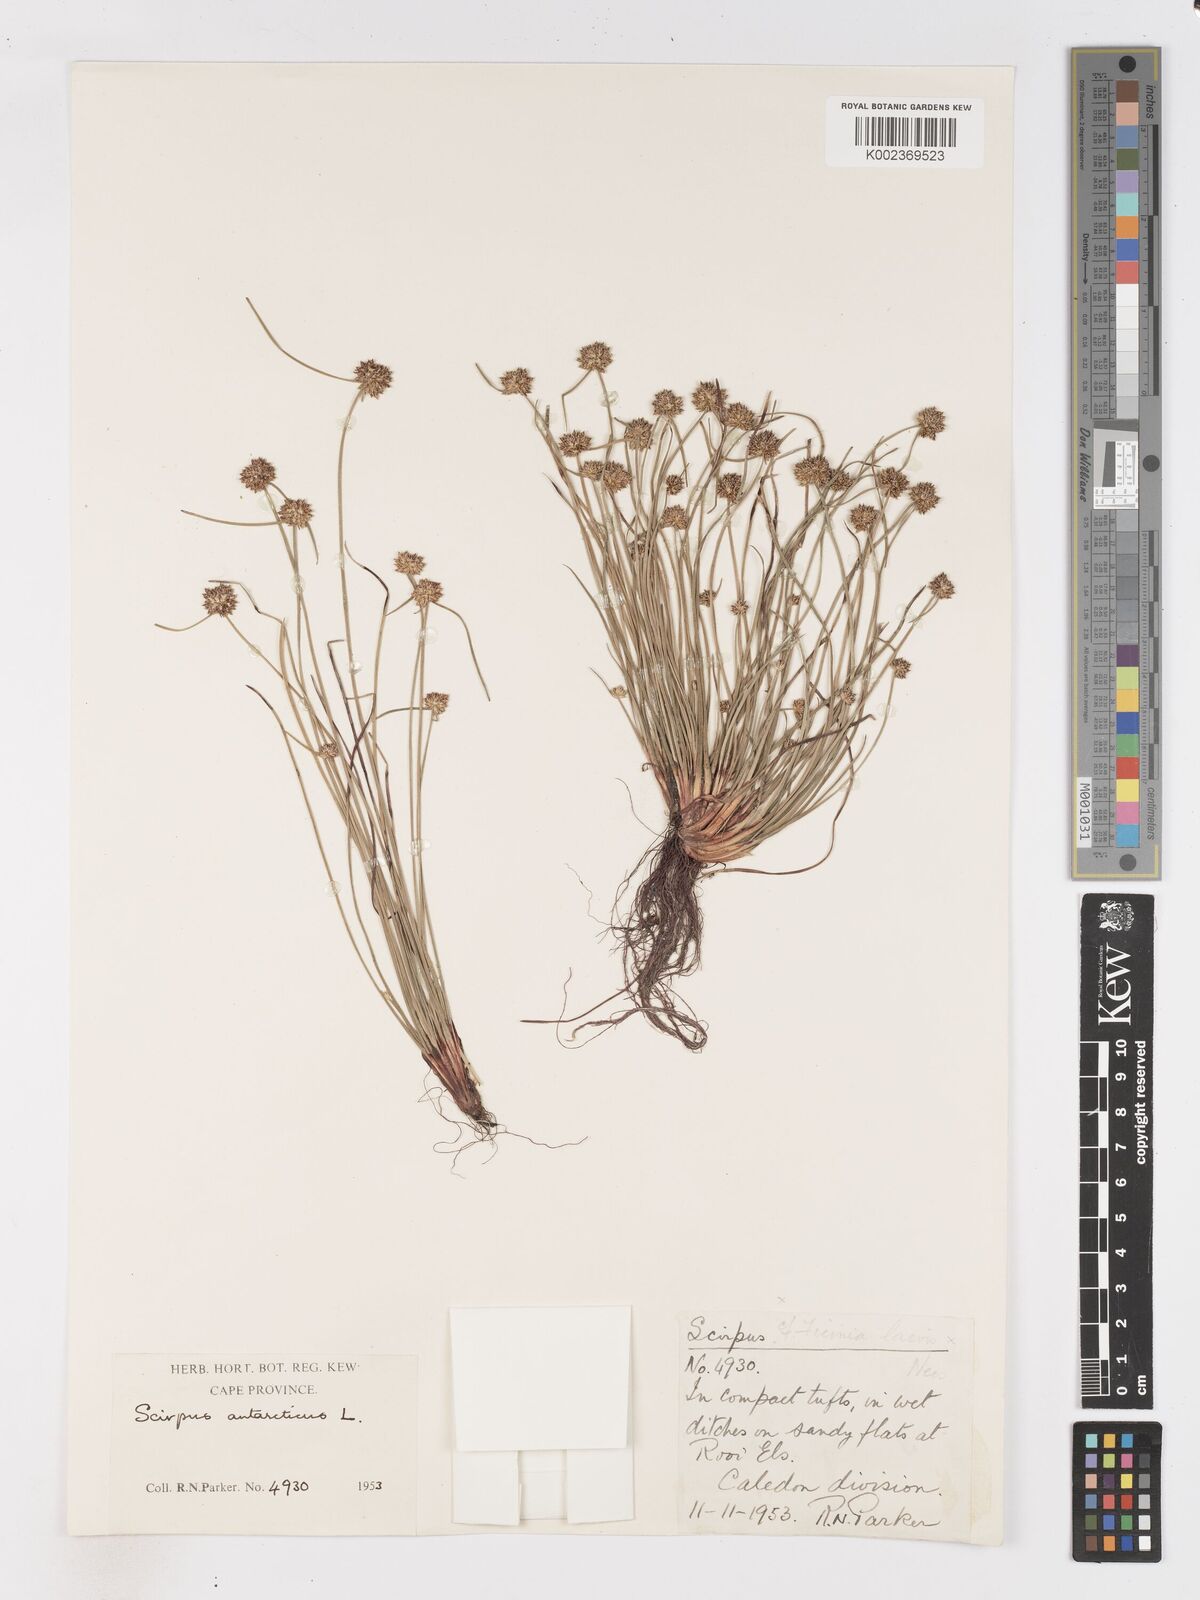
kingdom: Plantae
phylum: Tracheophyta
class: Liliopsida
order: Poales
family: Cyperaceae
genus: Isolepis
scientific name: Isolepis antarctica
